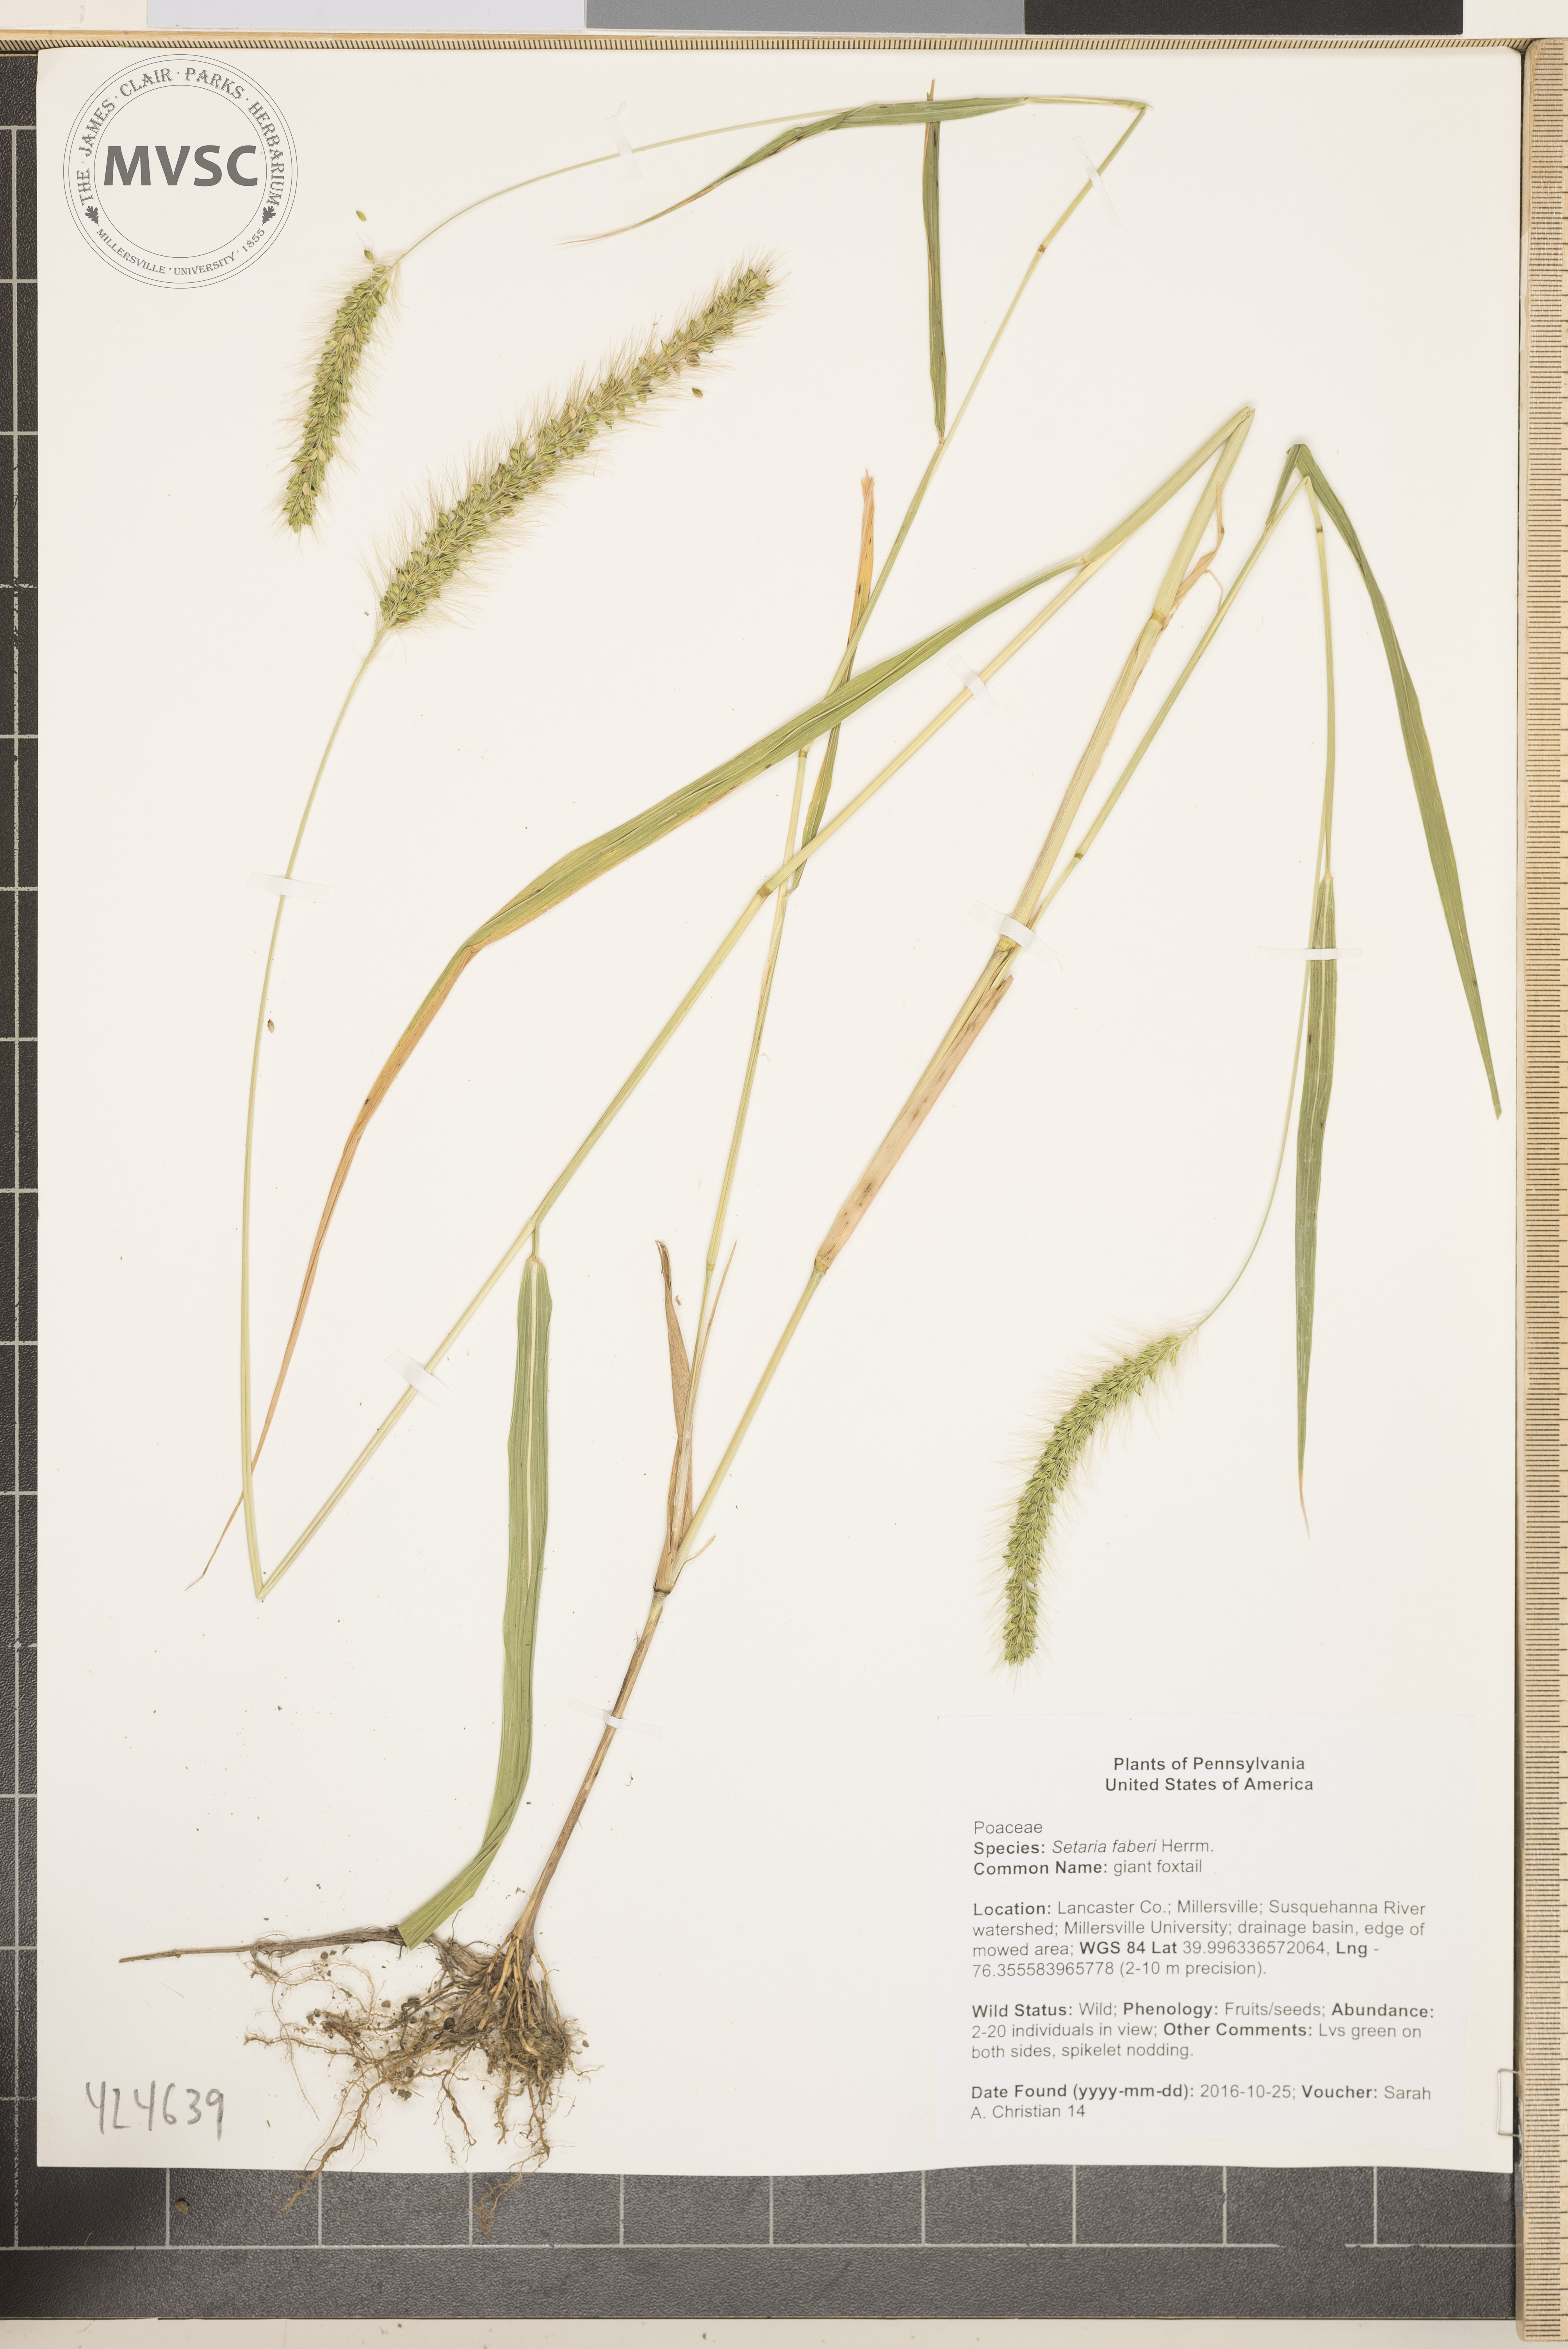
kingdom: Plantae
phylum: Tracheophyta
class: Liliopsida
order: Poales
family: Poaceae
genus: Setaria
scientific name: Setaria faberi
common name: giant foxtail
